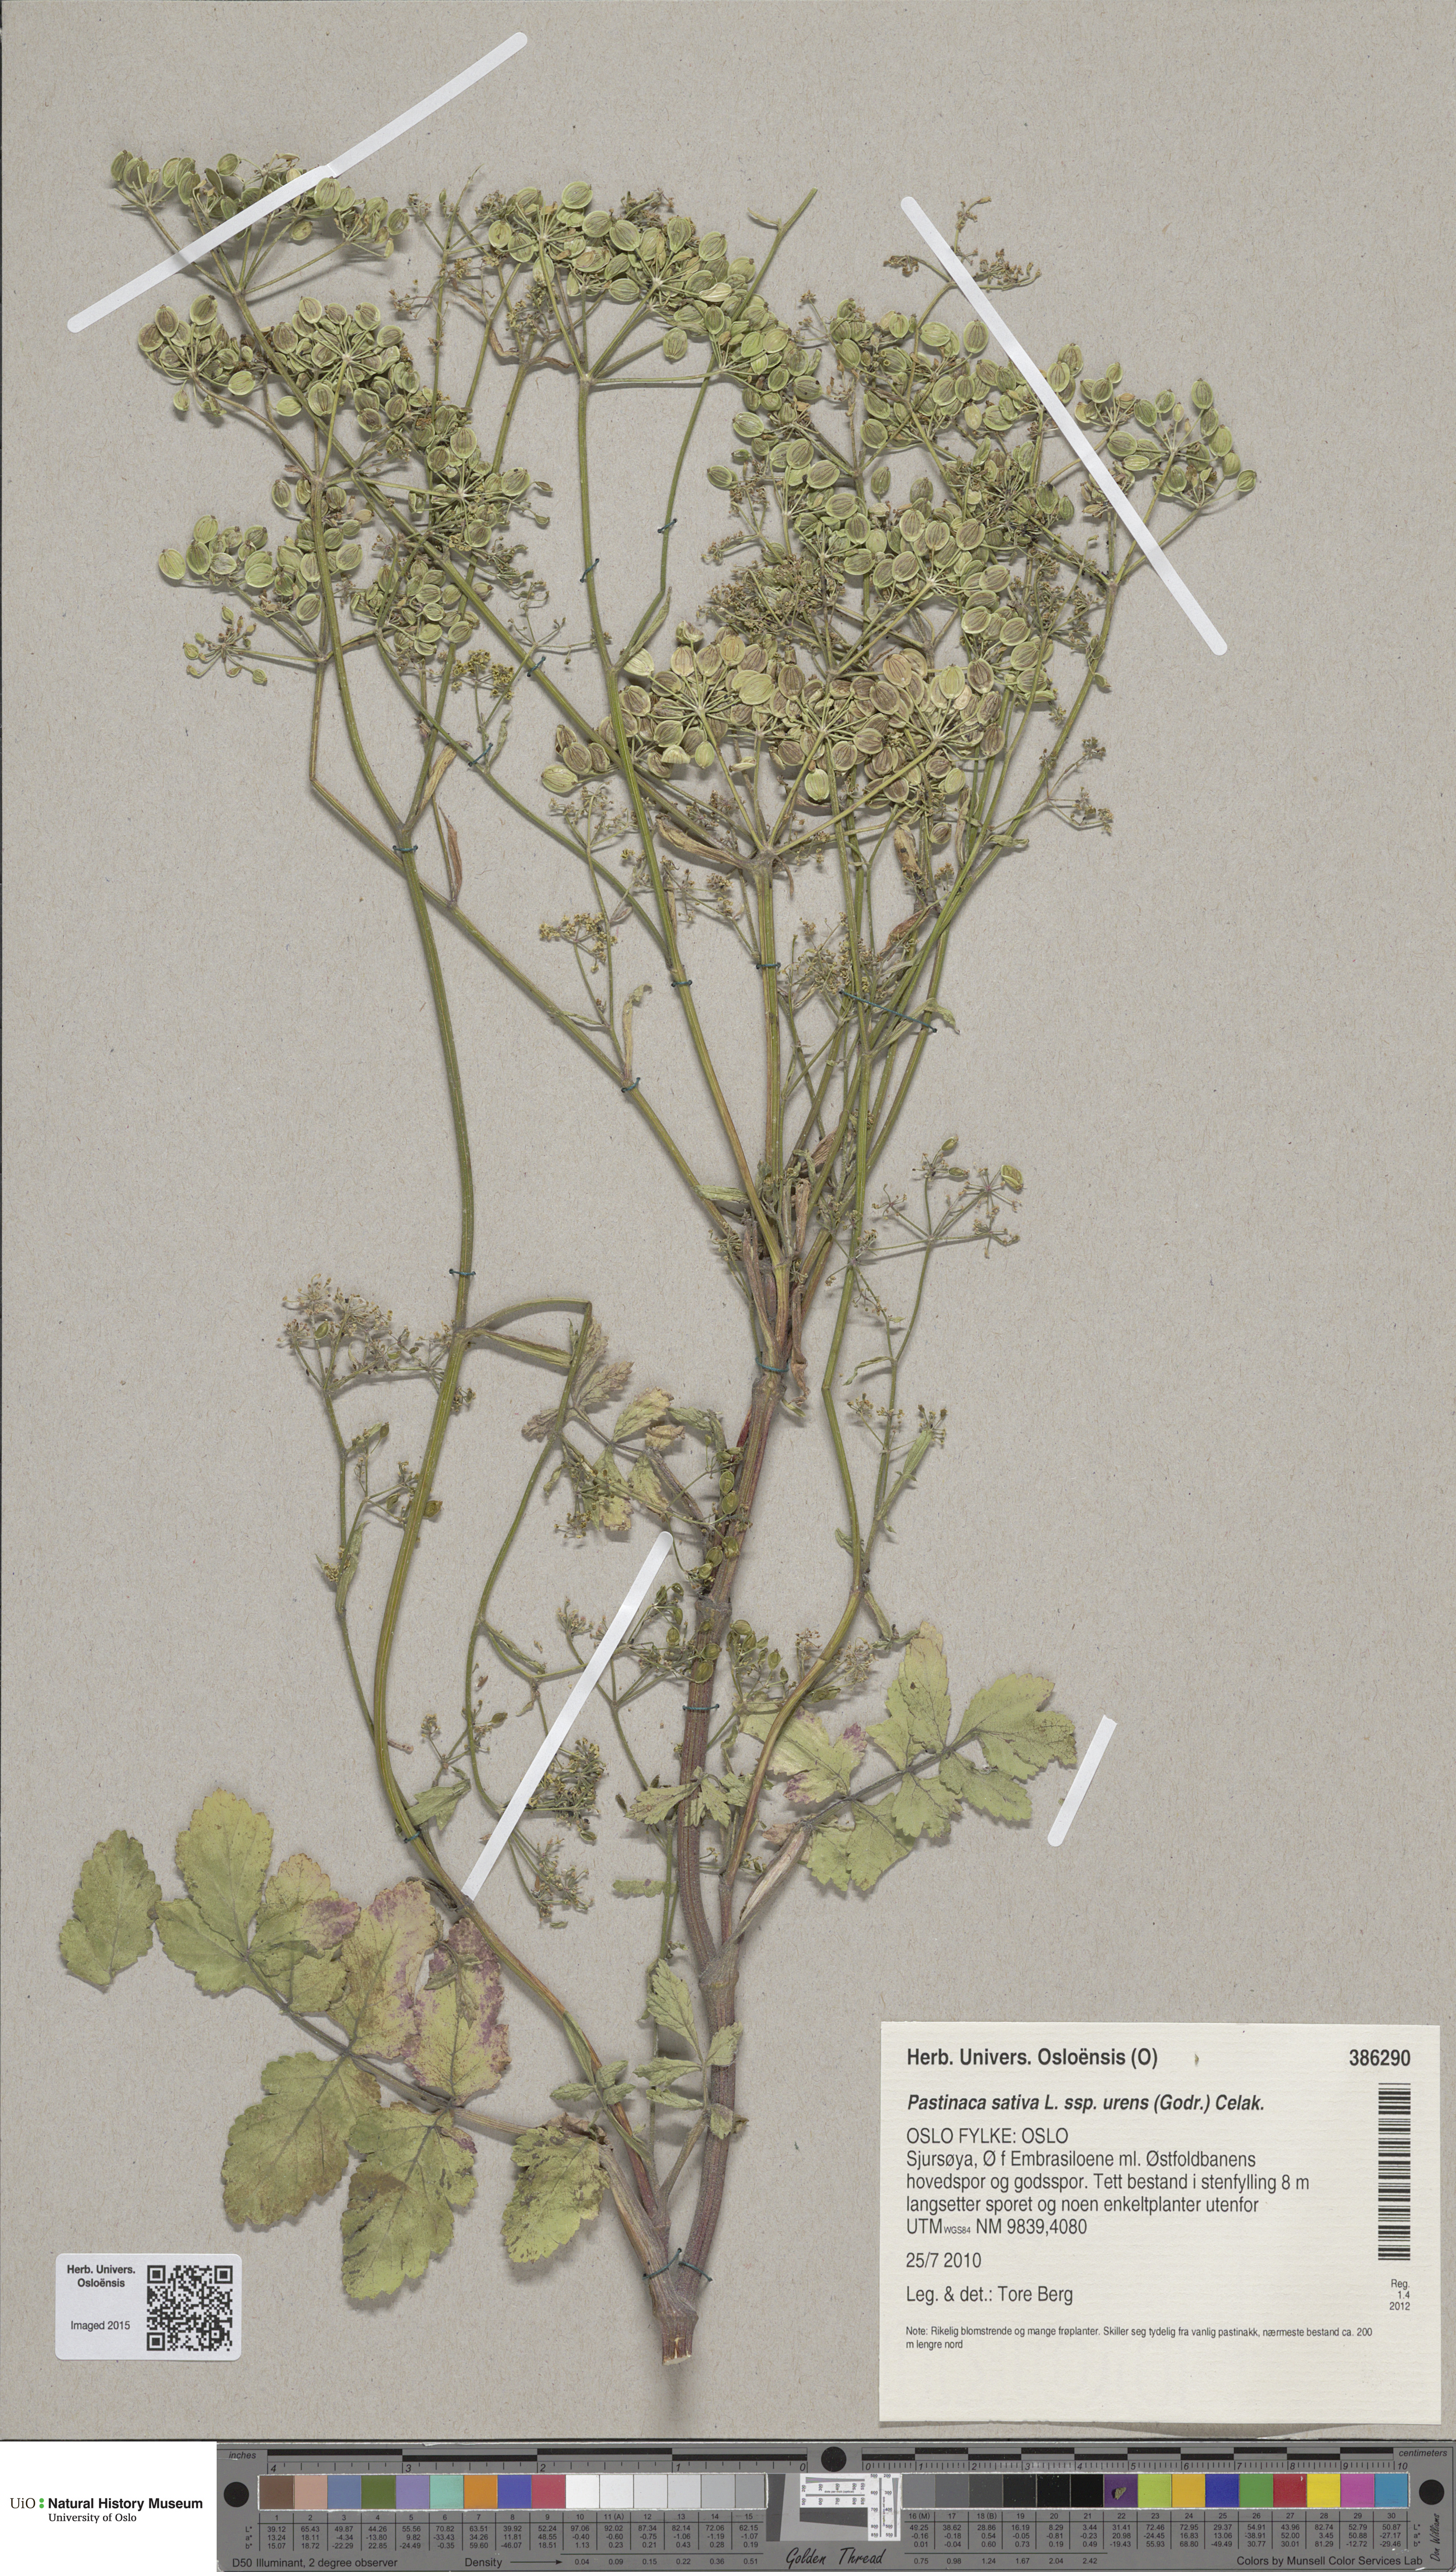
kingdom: Plantae
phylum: Tracheophyta
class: Magnoliopsida
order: Apiales
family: Apiaceae
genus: Pastinaca
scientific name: Pastinaca sativa
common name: Wild parsnip
